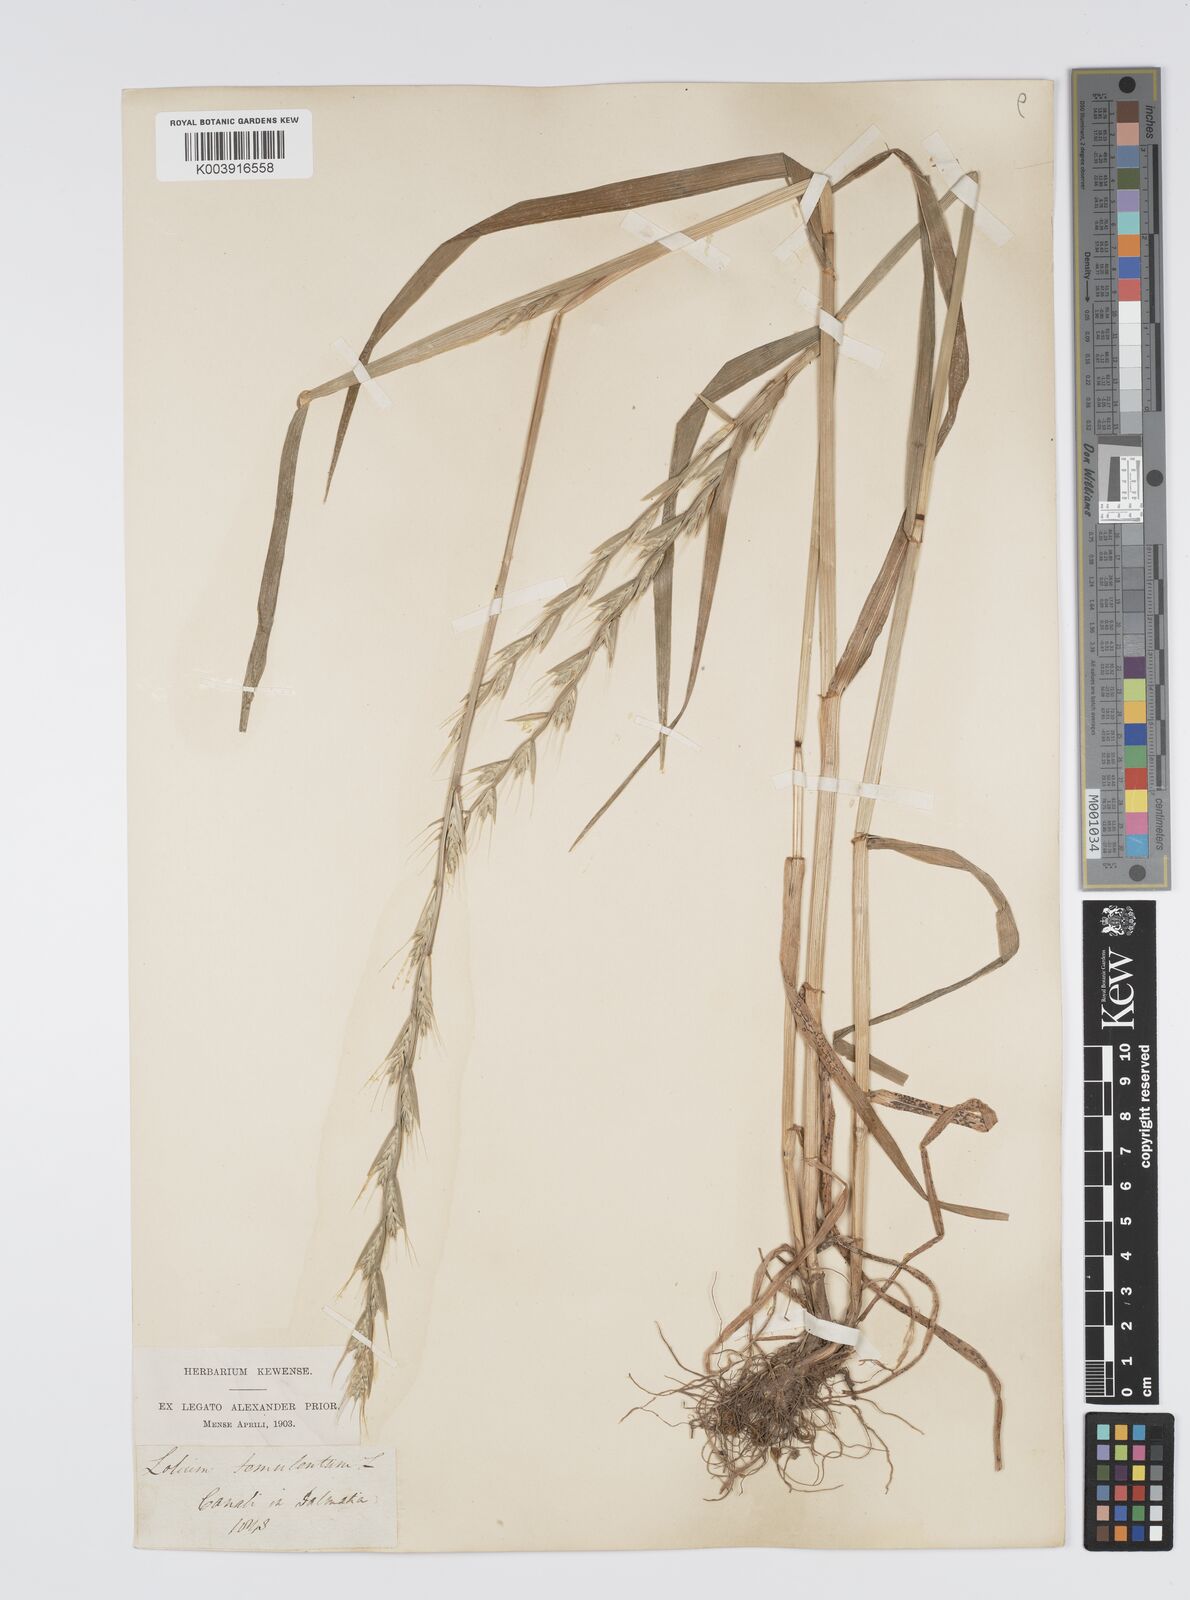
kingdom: Plantae
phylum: Tracheophyta
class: Liliopsida
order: Poales
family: Poaceae
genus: Lolium
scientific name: Lolium temulentum
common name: Darnel
